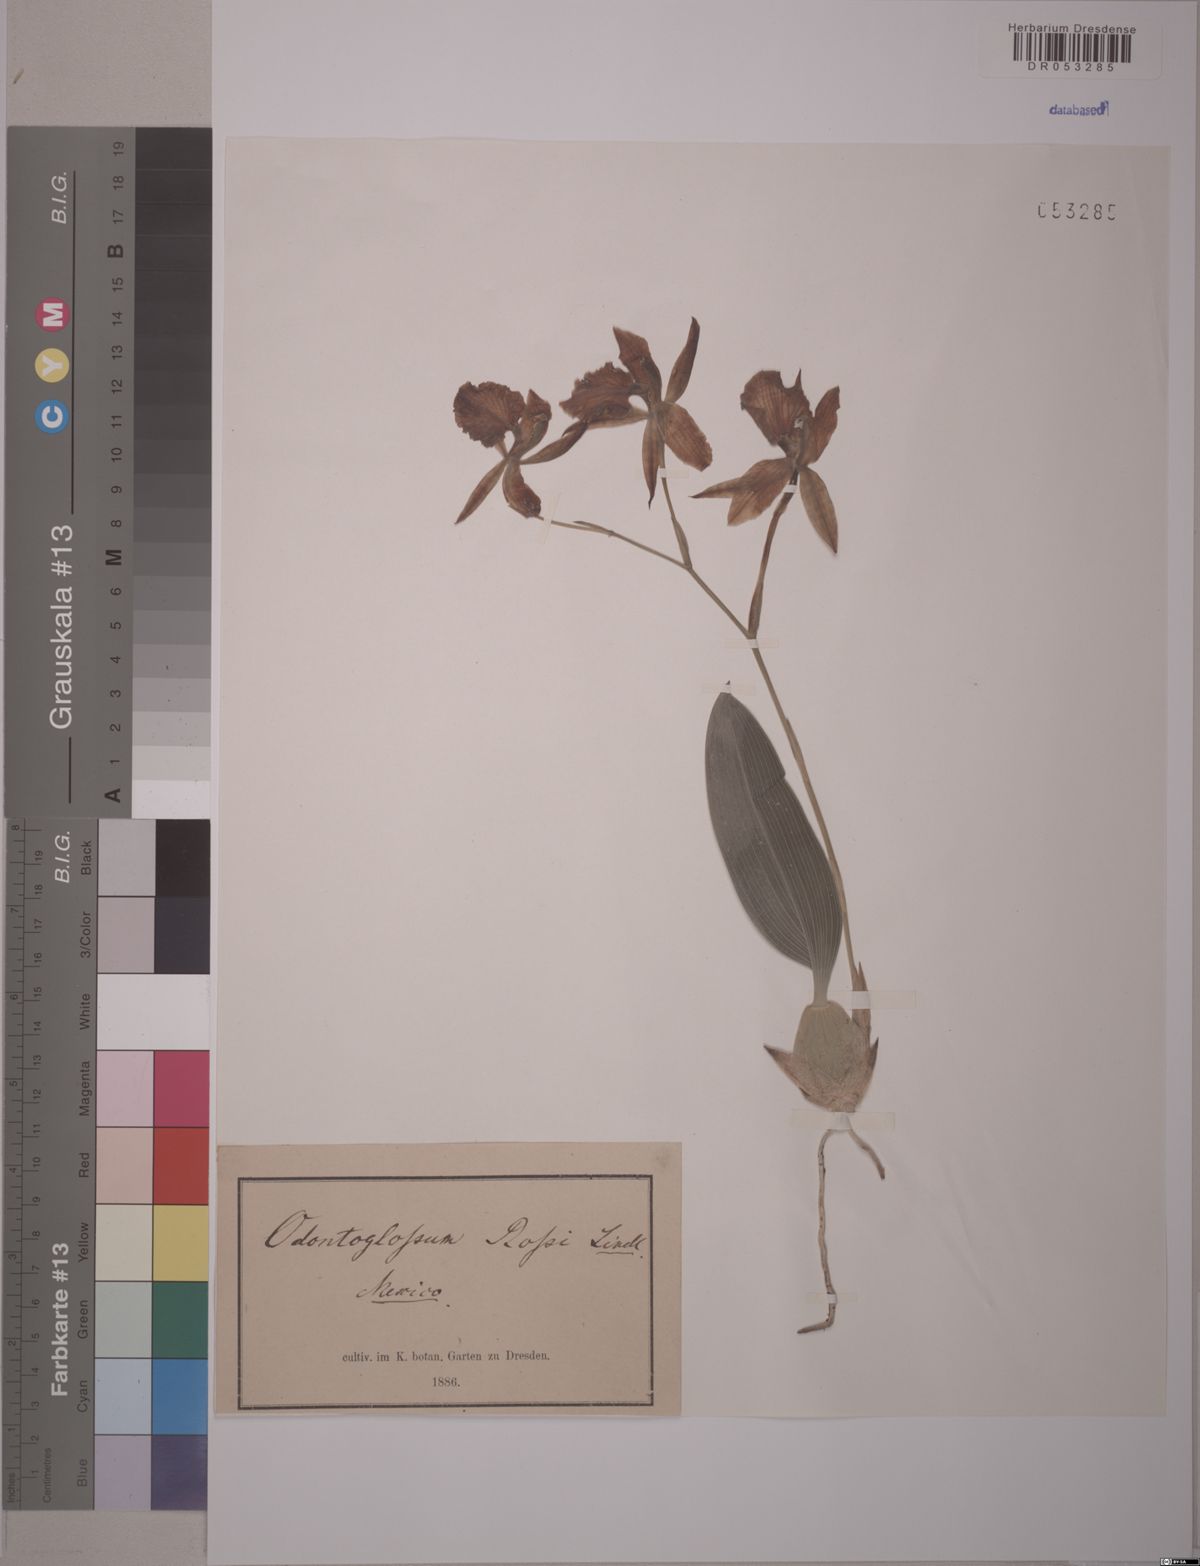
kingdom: Plantae
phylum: Tracheophyta
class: Liliopsida
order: Asparagales
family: Orchidaceae
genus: Rhynchostele
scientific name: Rhynchostele rossii
